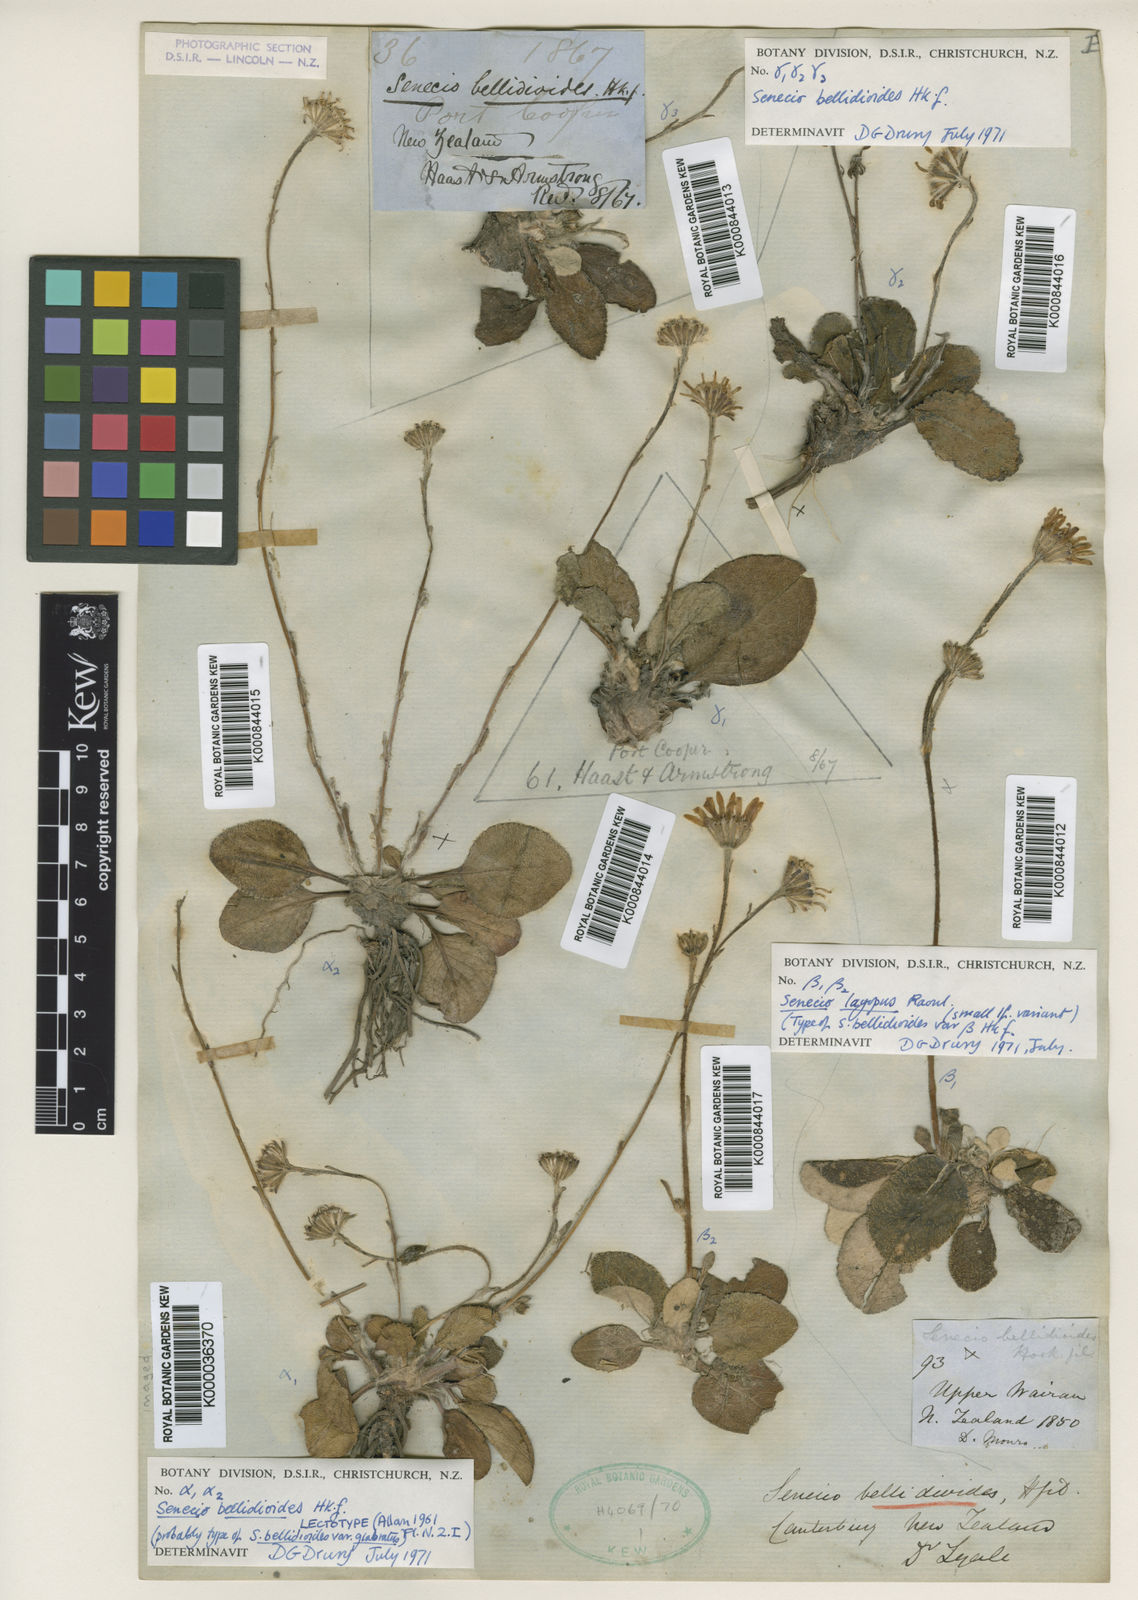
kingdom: Plantae
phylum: Tracheophyta
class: Magnoliopsida
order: Asterales
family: Asteraceae
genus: Brachyglottis
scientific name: Brachyglottis bellidioides
